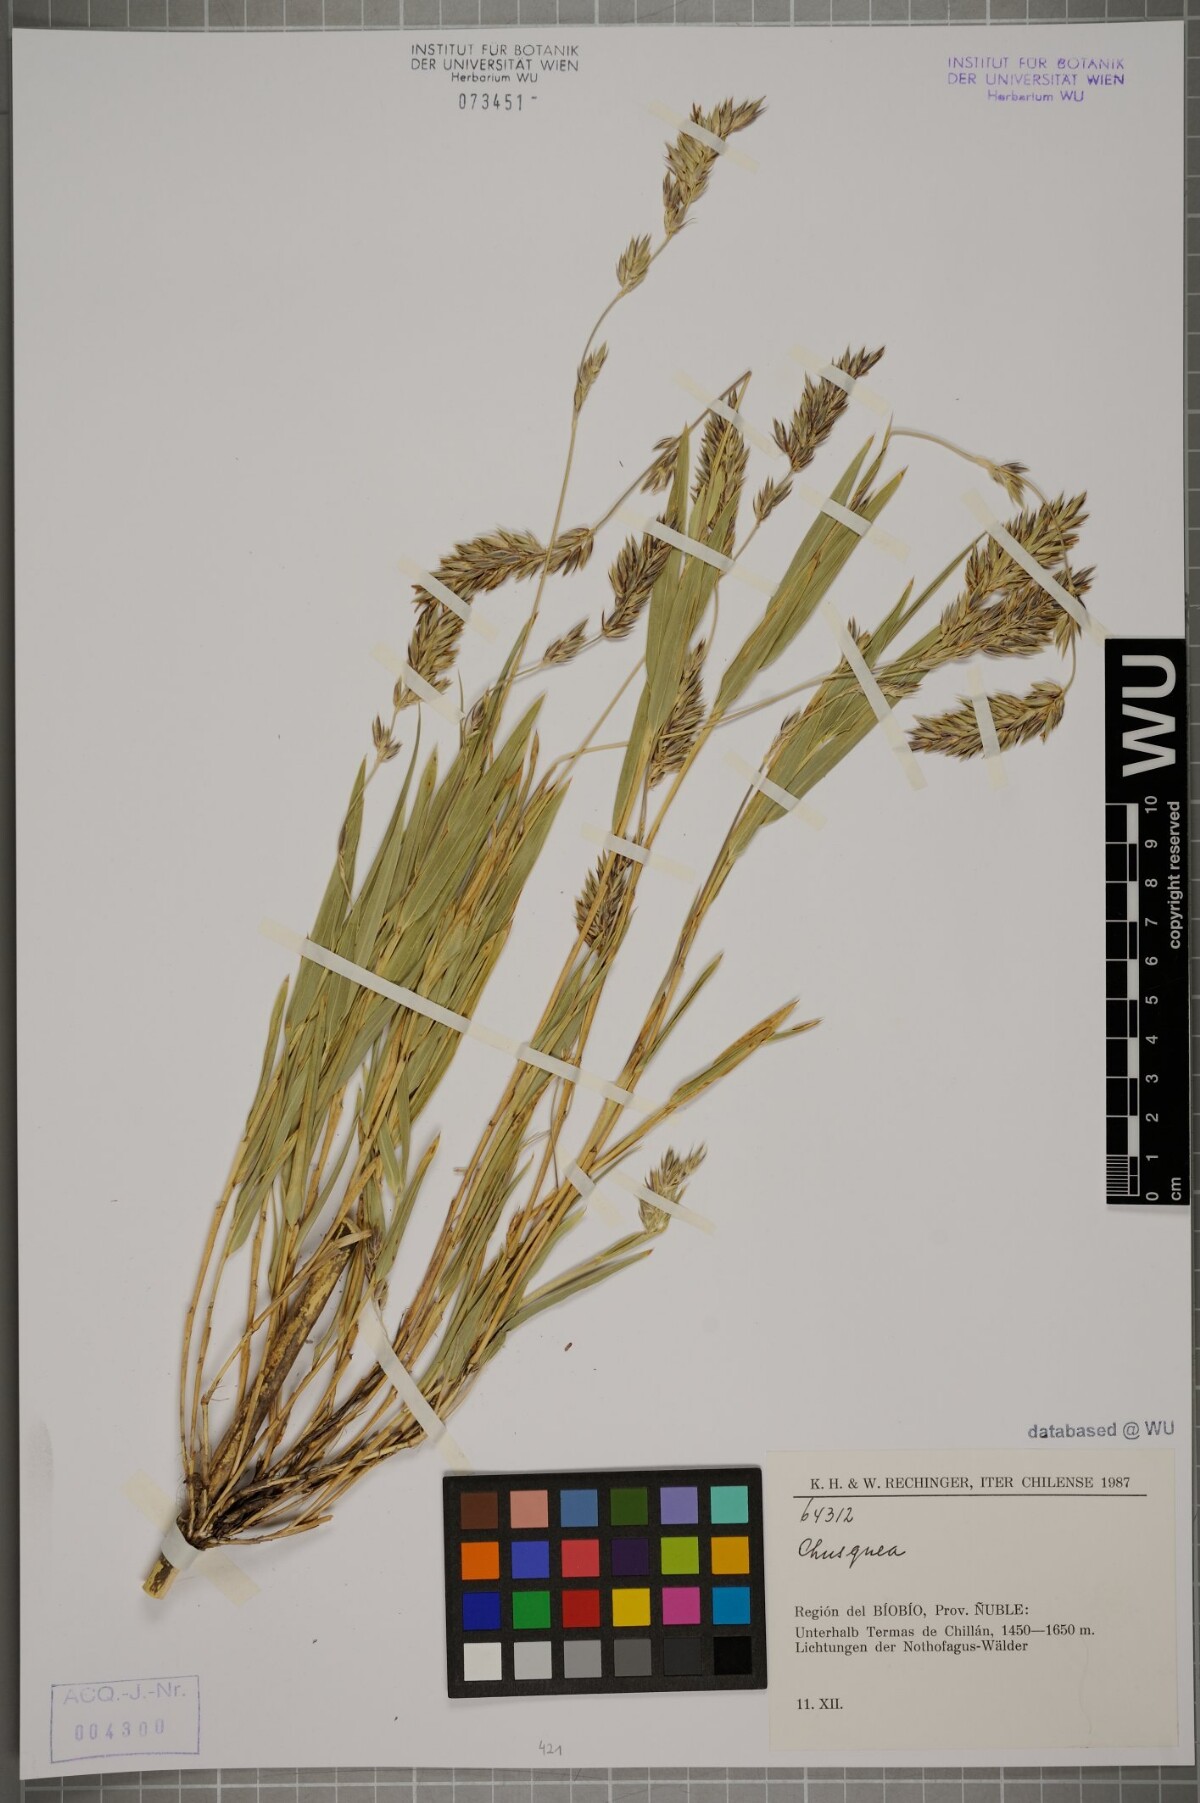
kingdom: Plantae
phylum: Tracheophyta
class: Liliopsida
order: Poales
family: Poaceae
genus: Chusquea
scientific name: Chusquea
